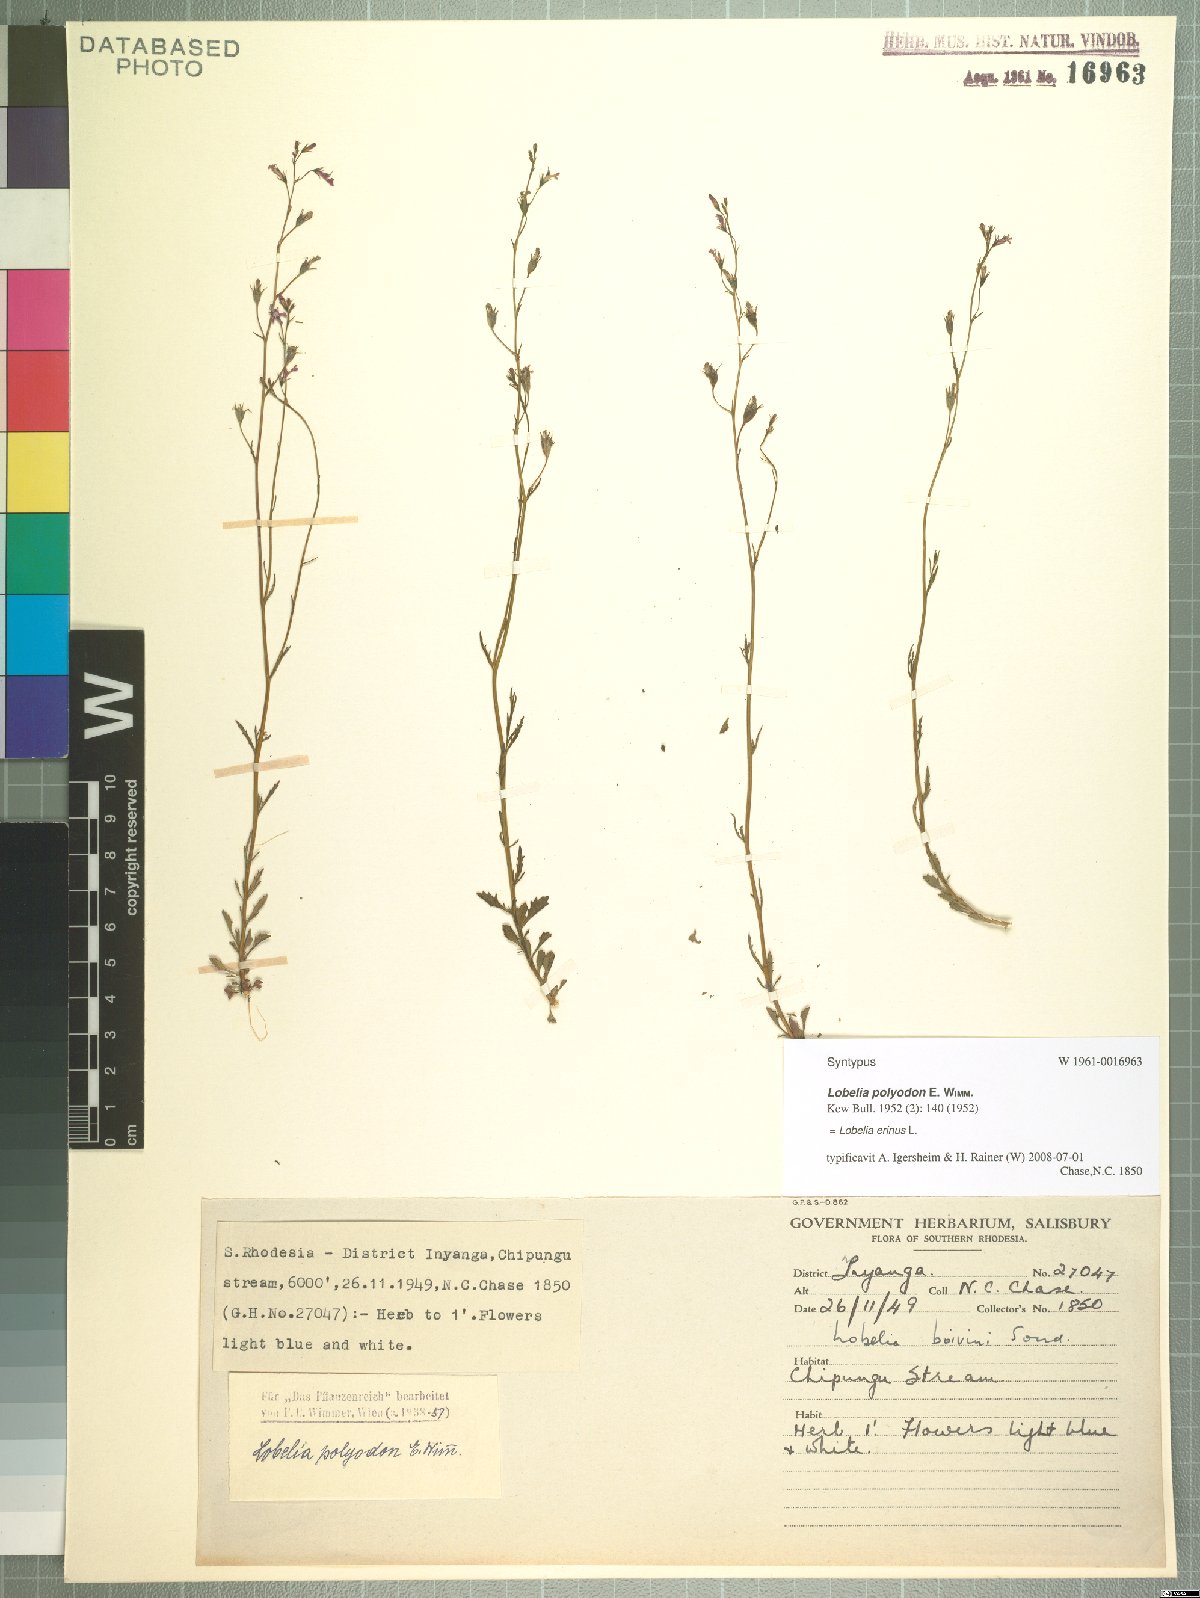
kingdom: Plantae
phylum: Tracheophyta
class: Magnoliopsida
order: Asterales
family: Campanulaceae
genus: Lobelia
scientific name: Lobelia erinus
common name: Edging lobelia
